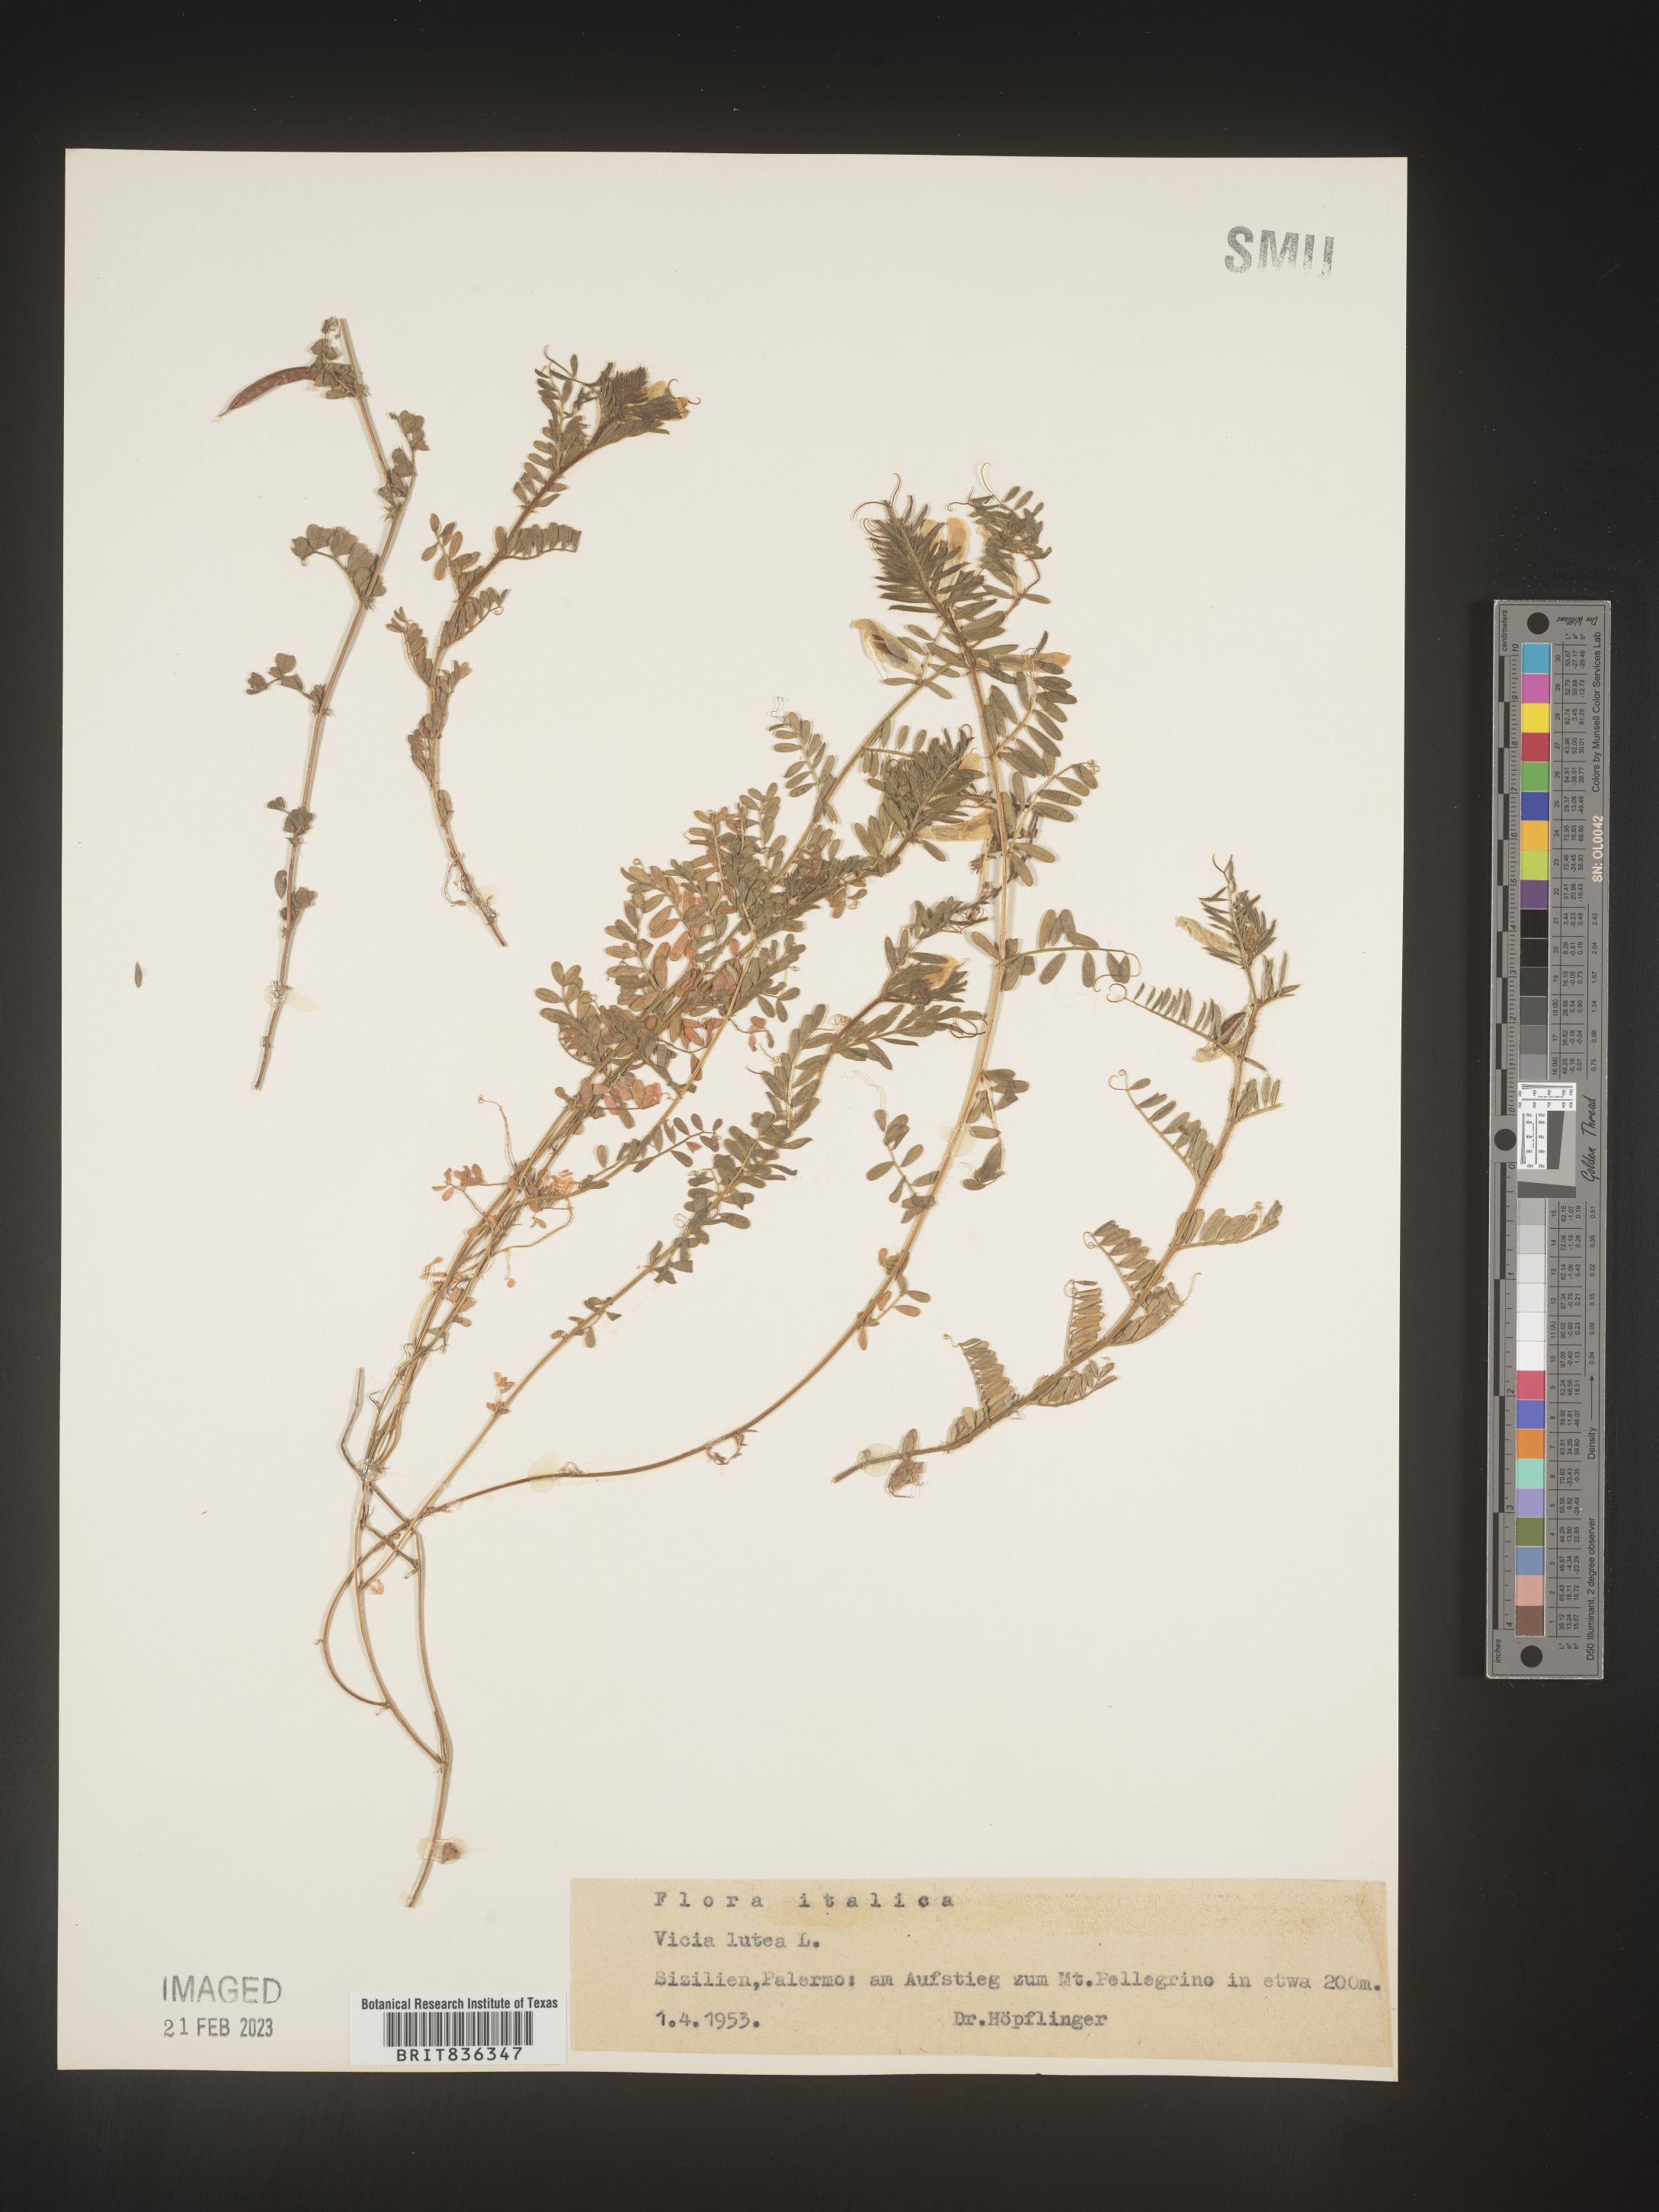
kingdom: Plantae
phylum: Tracheophyta
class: Magnoliopsida
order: Fabales
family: Fabaceae
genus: Vicia
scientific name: Vicia
